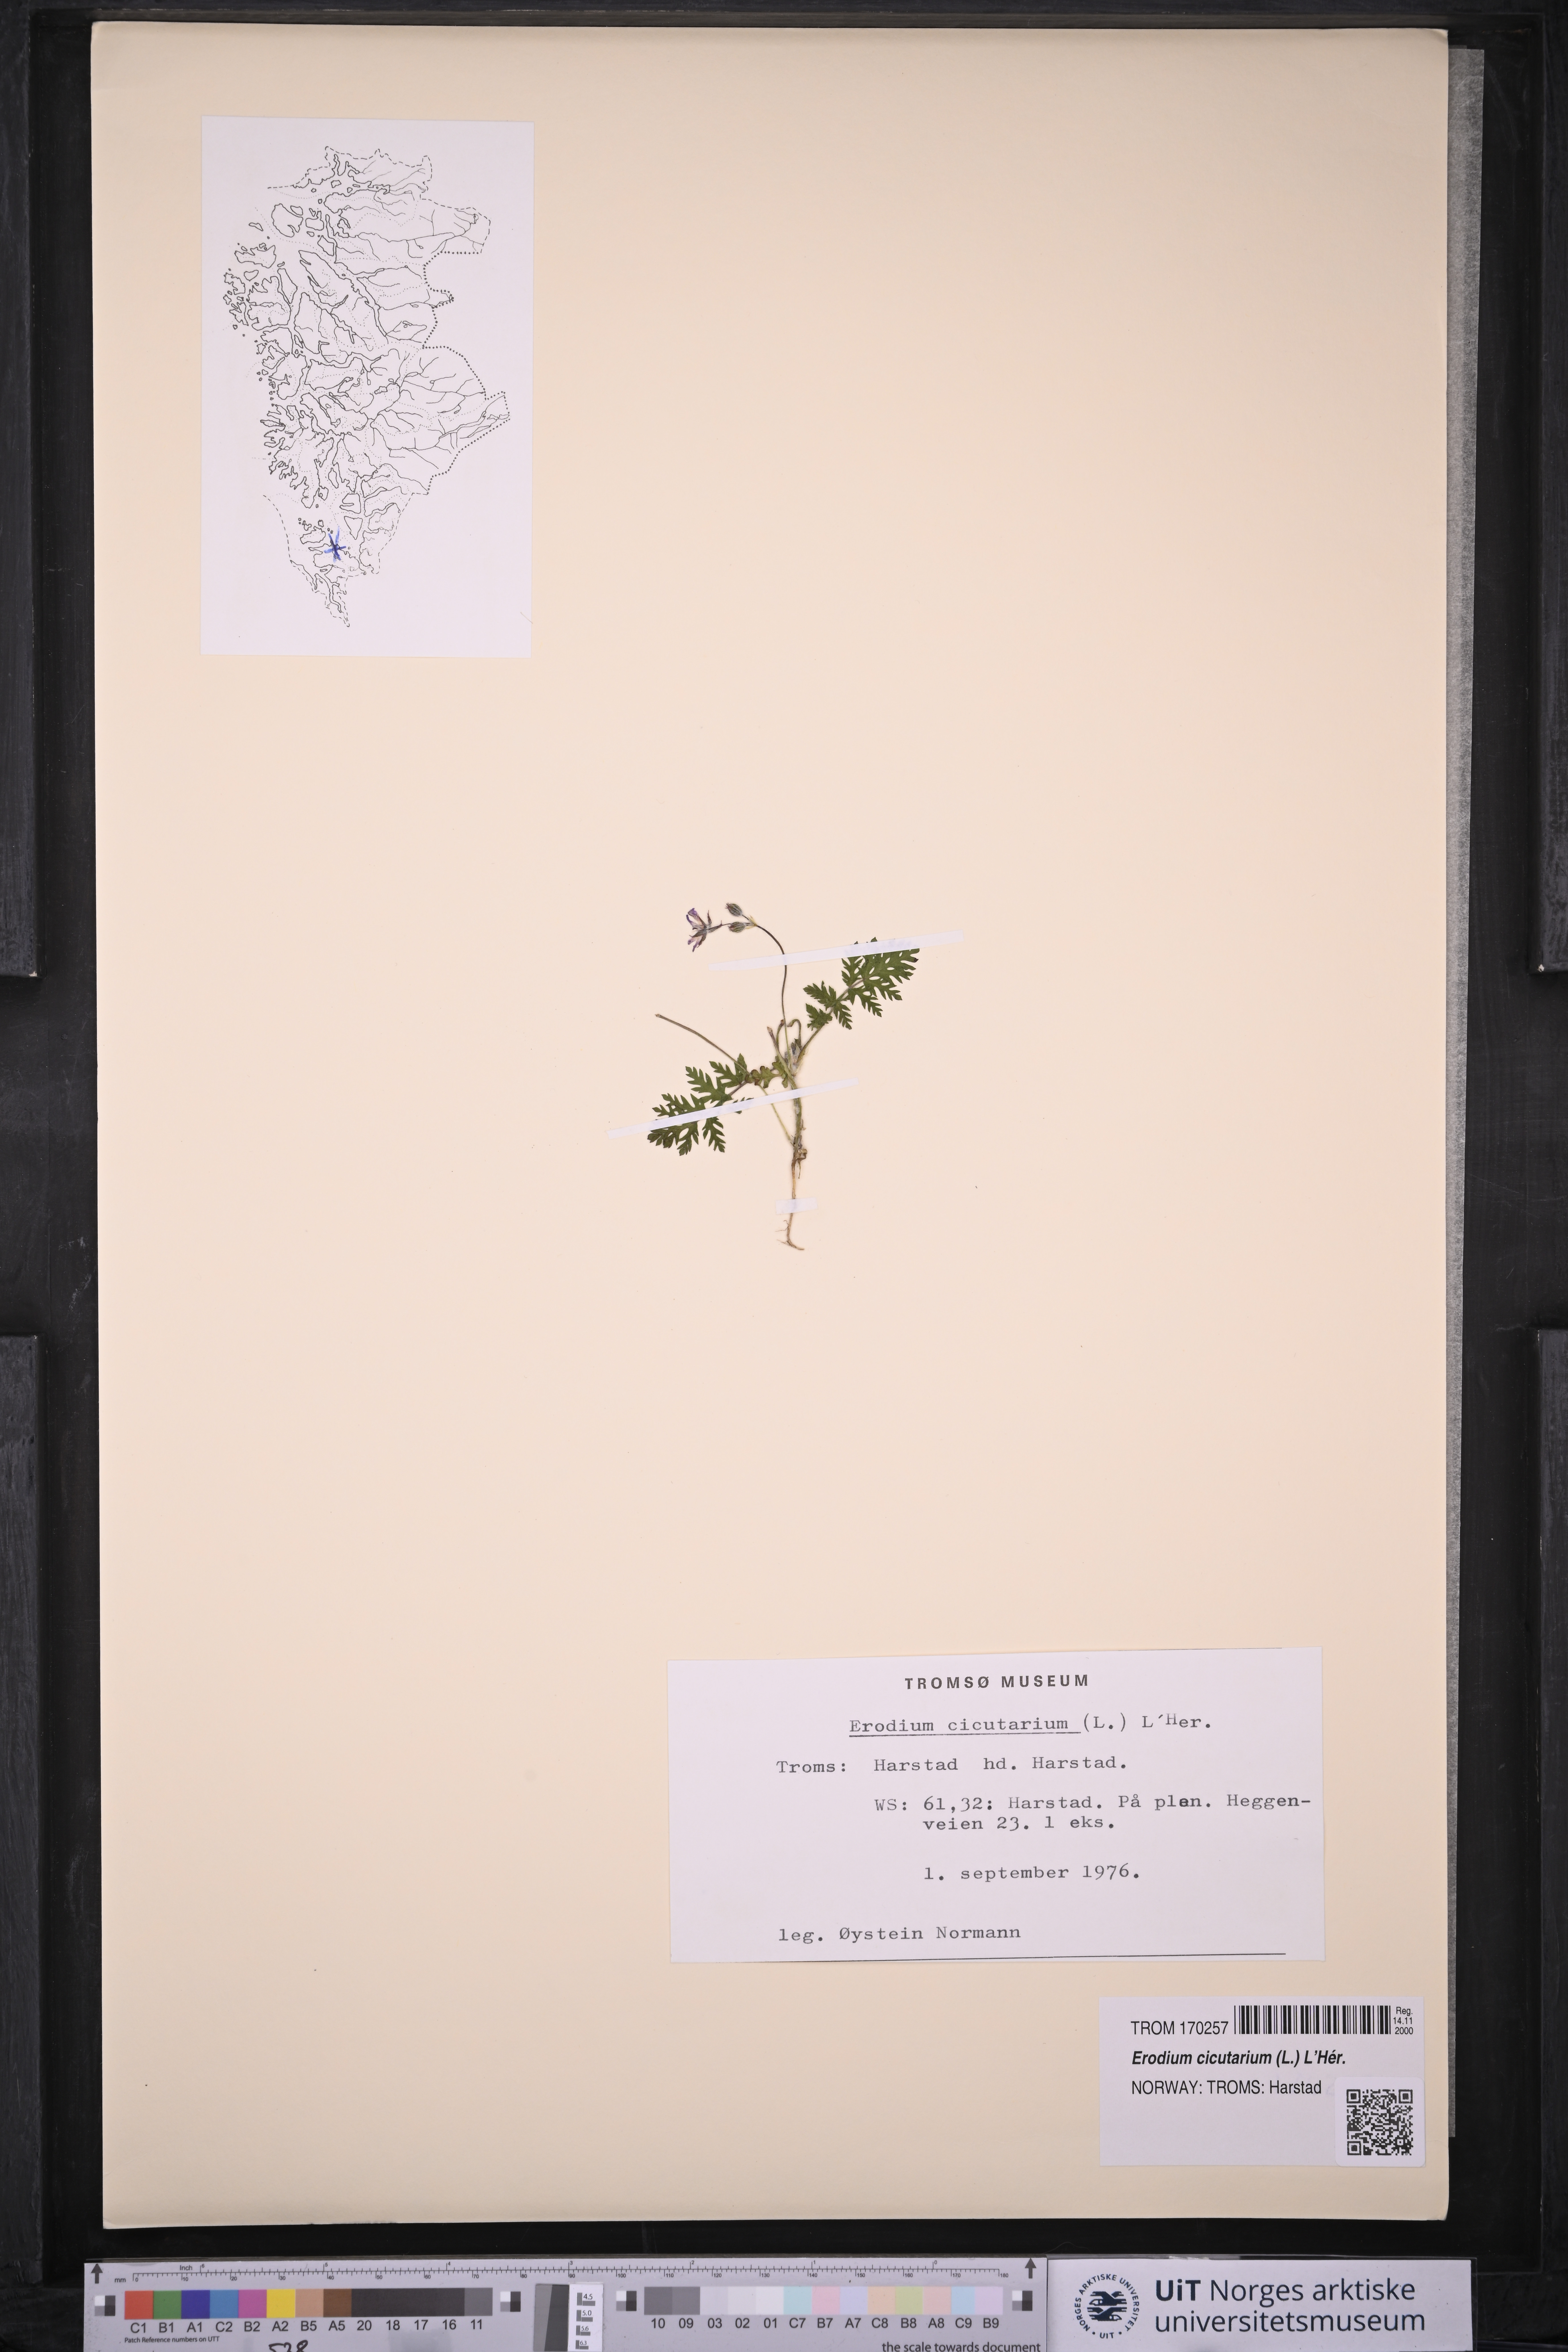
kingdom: Plantae
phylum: Tracheophyta
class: Magnoliopsida
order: Geraniales
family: Geraniaceae
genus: Erodium
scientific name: Erodium cicutarium
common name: Common stork's-bill
